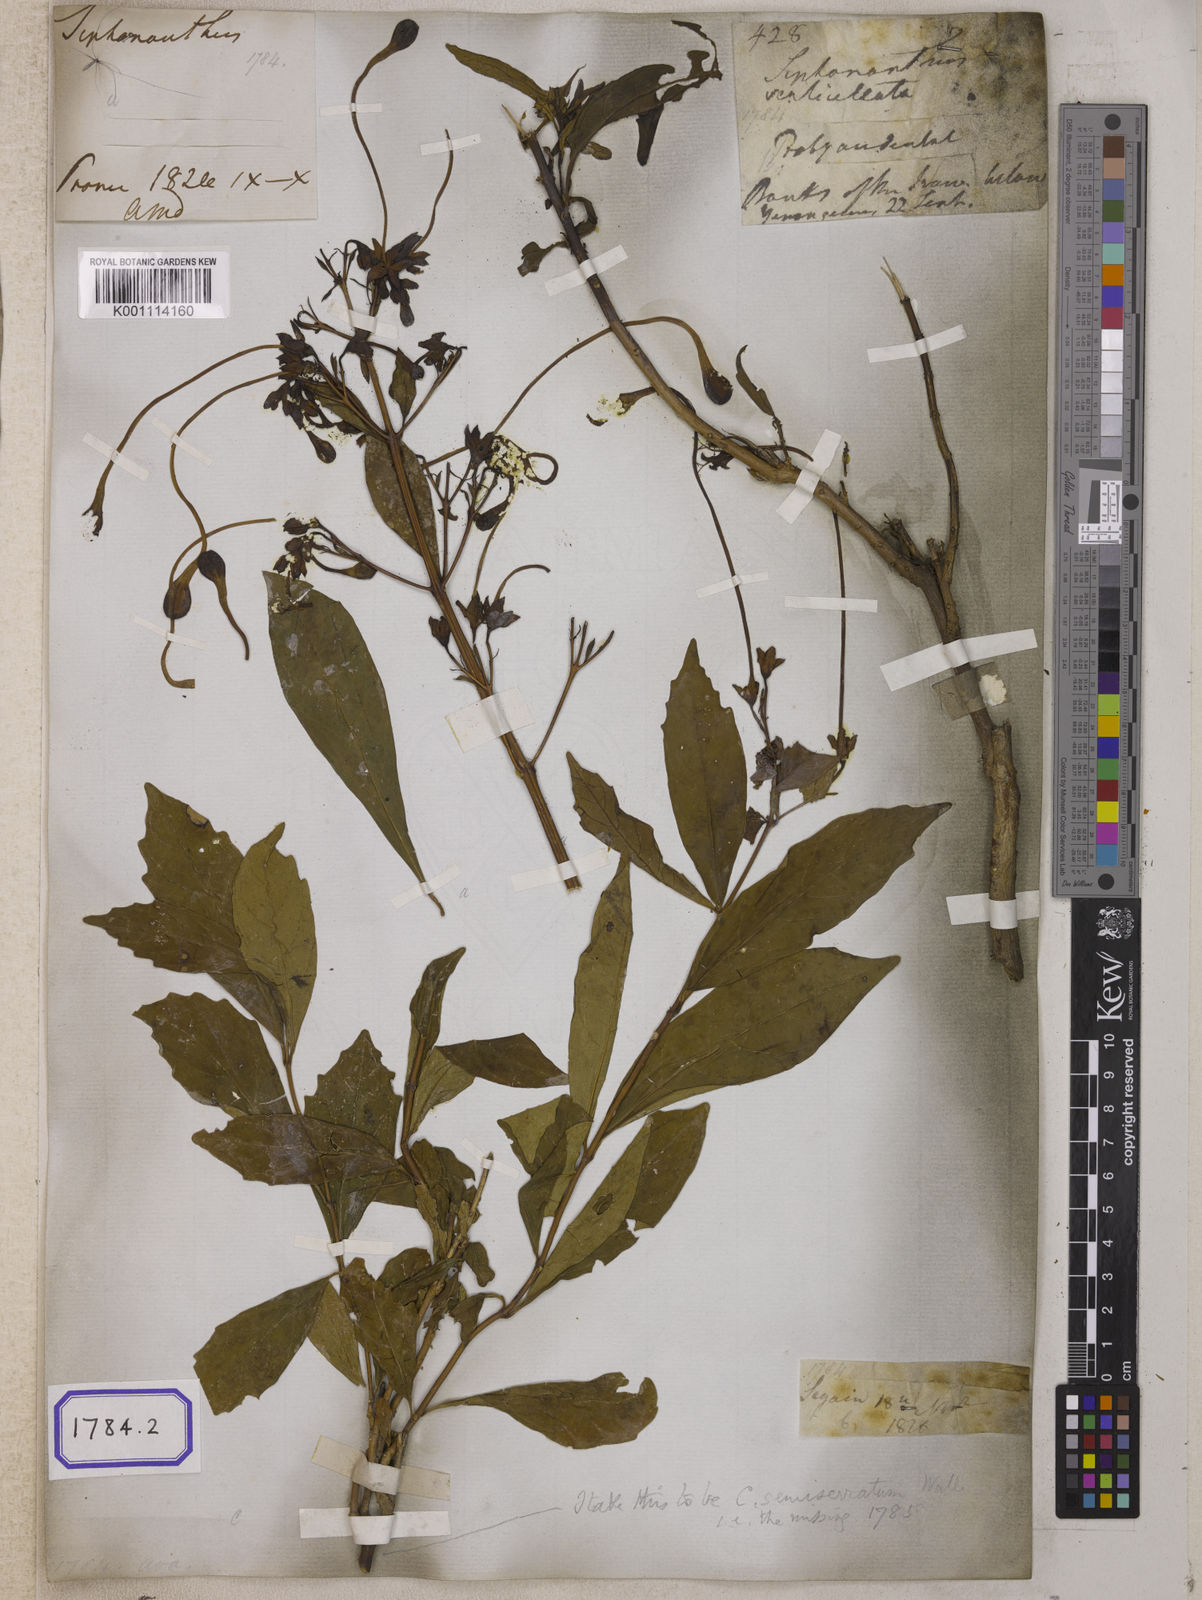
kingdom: Plantae
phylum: Tracheophyta
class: Magnoliopsida
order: Lamiales
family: Lamiaceae
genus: Clerodendrum
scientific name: Clerodendrum indicum
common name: Turk's turbin
